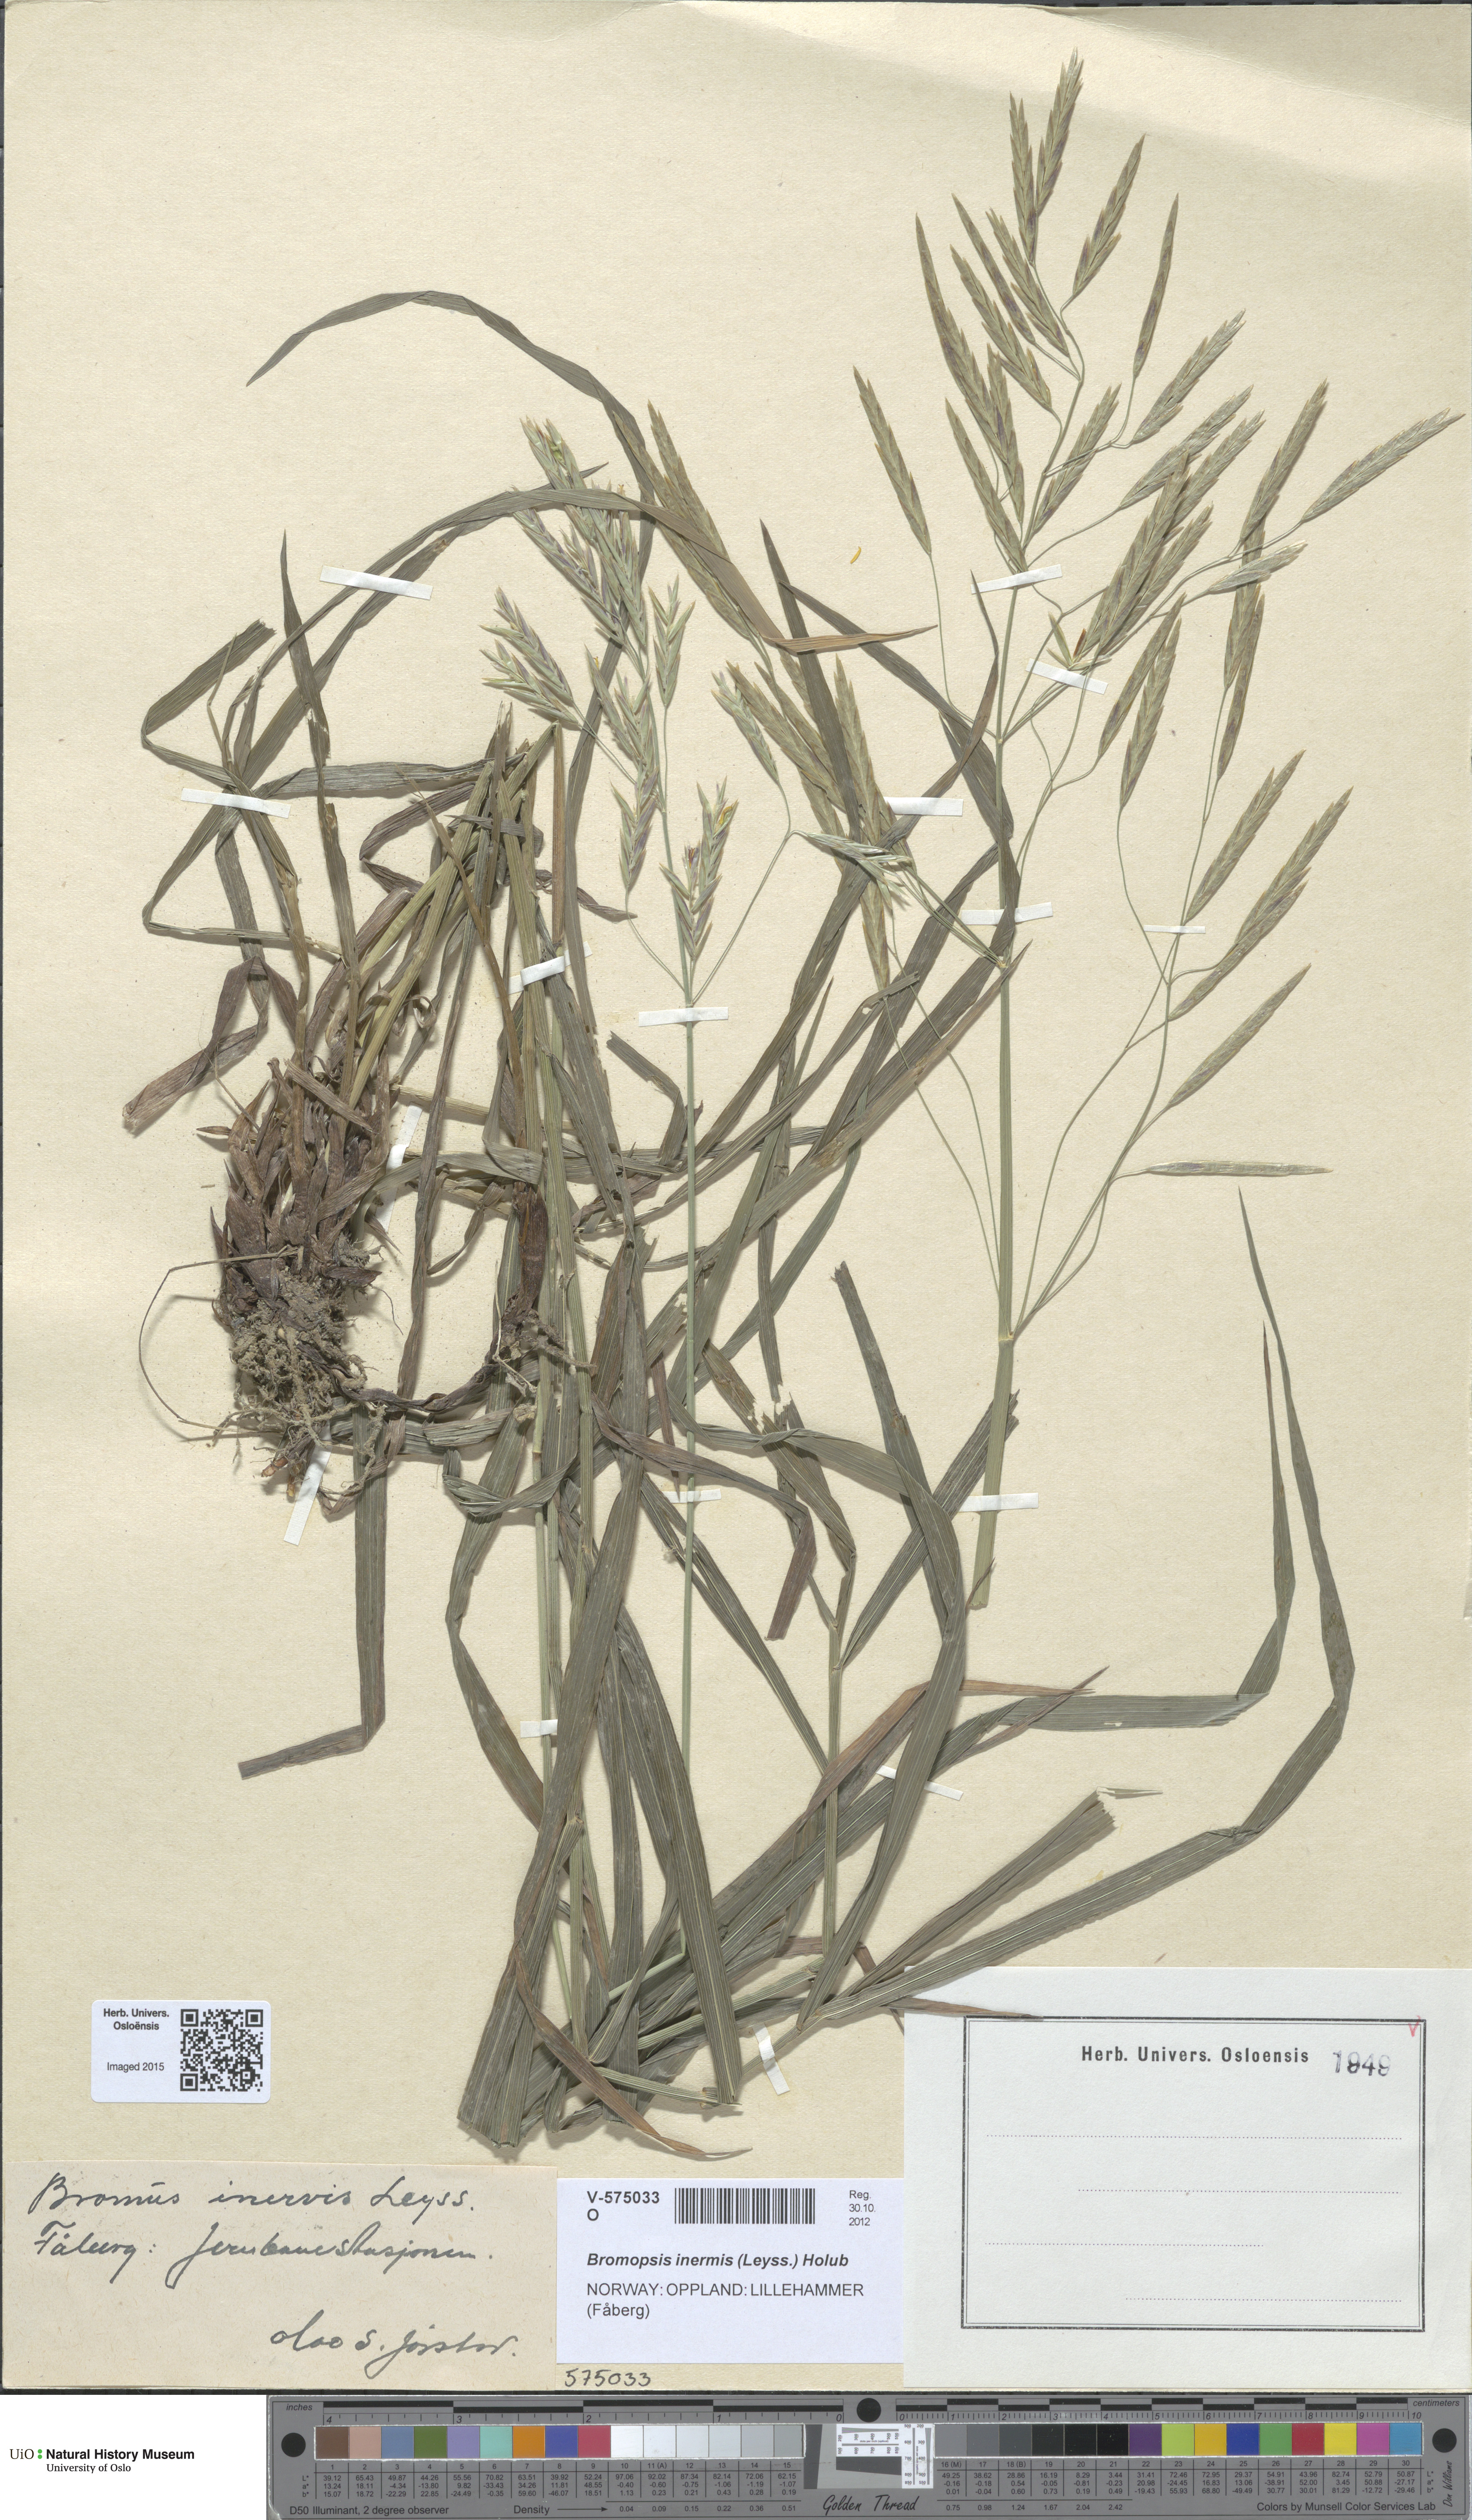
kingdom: Plantae
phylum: Tracheophyta
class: Liliopsida
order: Poales
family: Poaceae
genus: Bromus
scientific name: Bromus inermis
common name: Smooth brome
